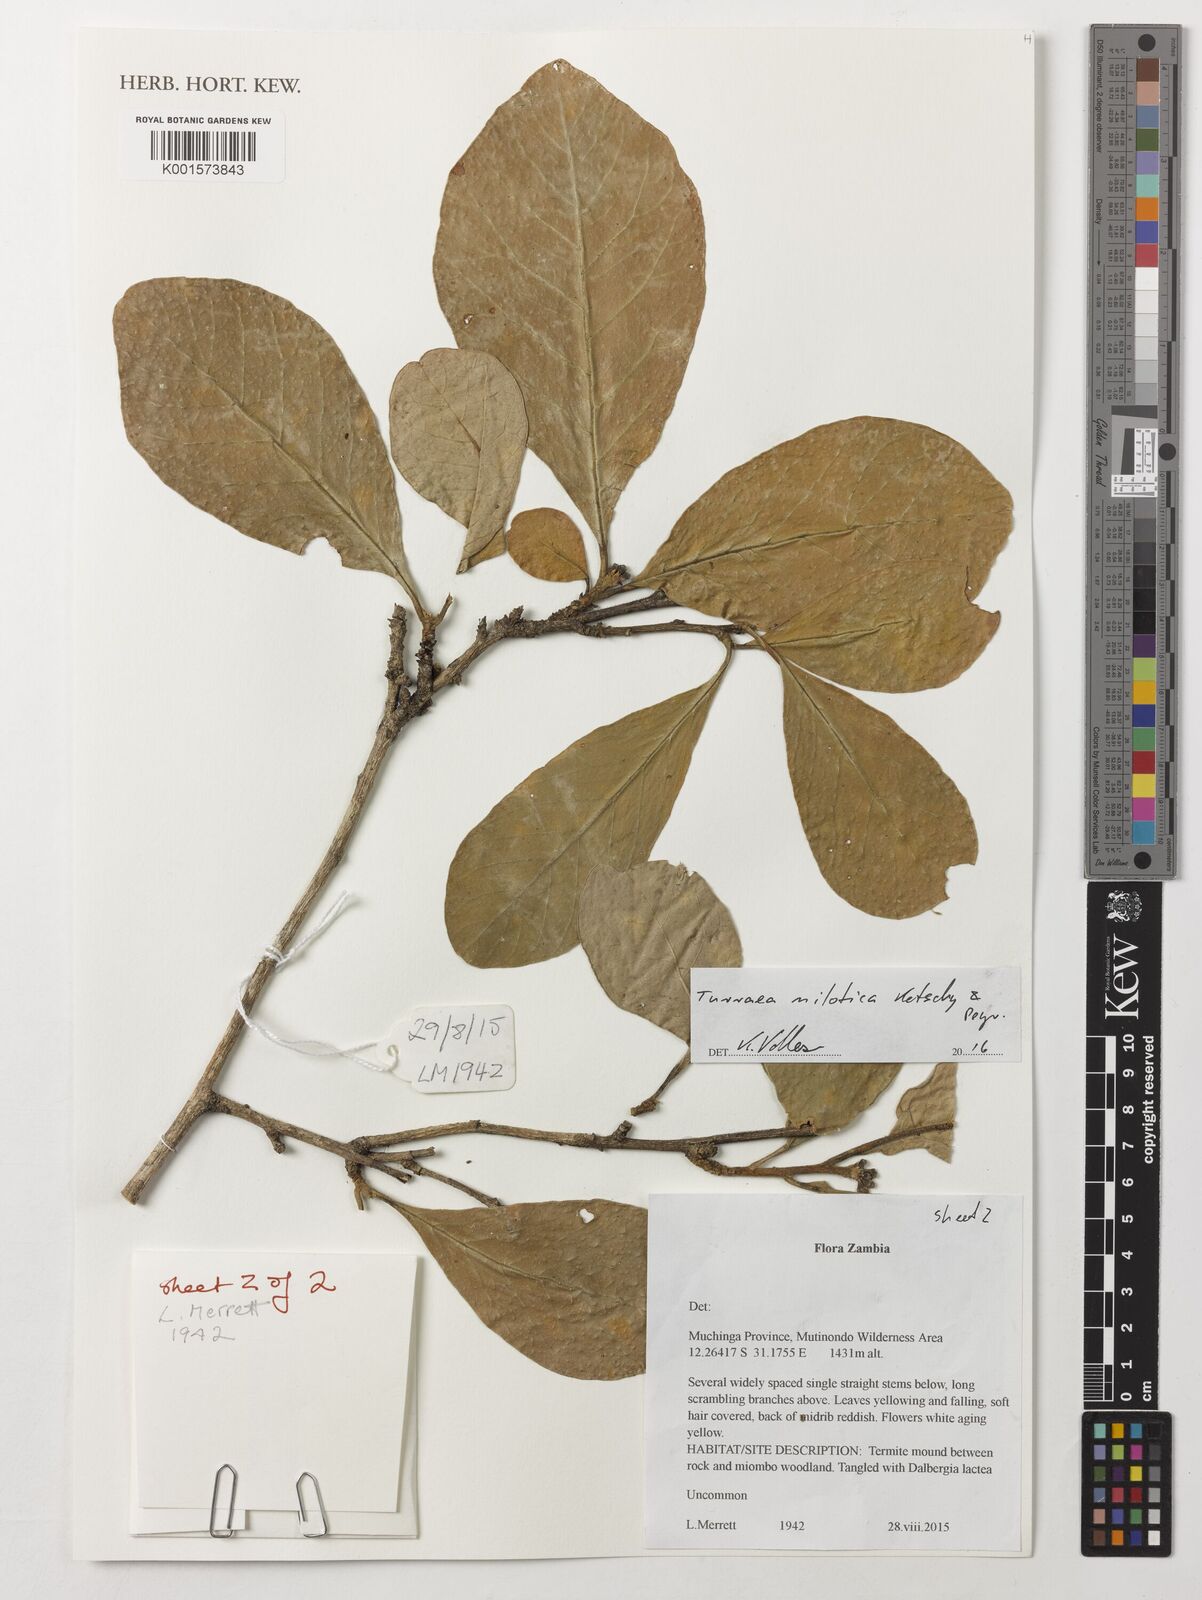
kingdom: Plantae
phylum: Tracheophyta
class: Magnoliopsida
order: Sapindales
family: Meliaceae
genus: Turraea
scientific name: Turraea nilotica
